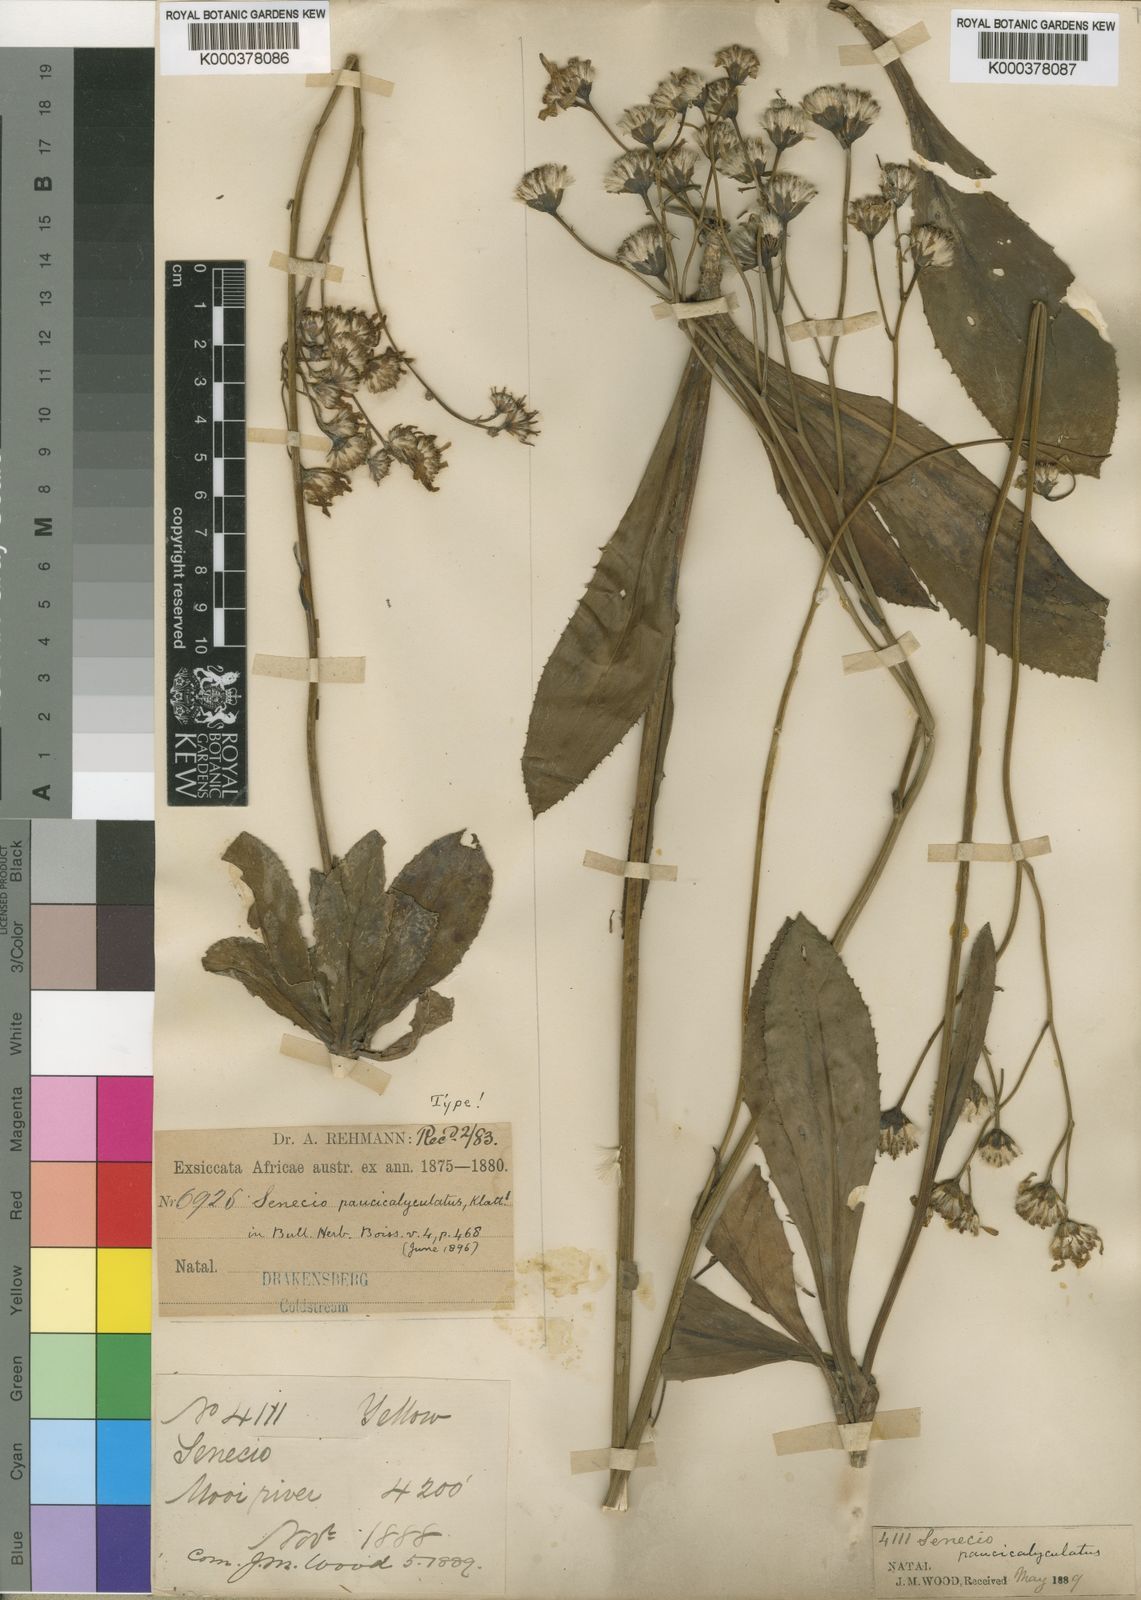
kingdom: Plantae
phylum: Tracheophyta
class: Magnoliopsida
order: Asterales
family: Asteraceae
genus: Senecio
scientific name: Senecio paucicalyculatus
